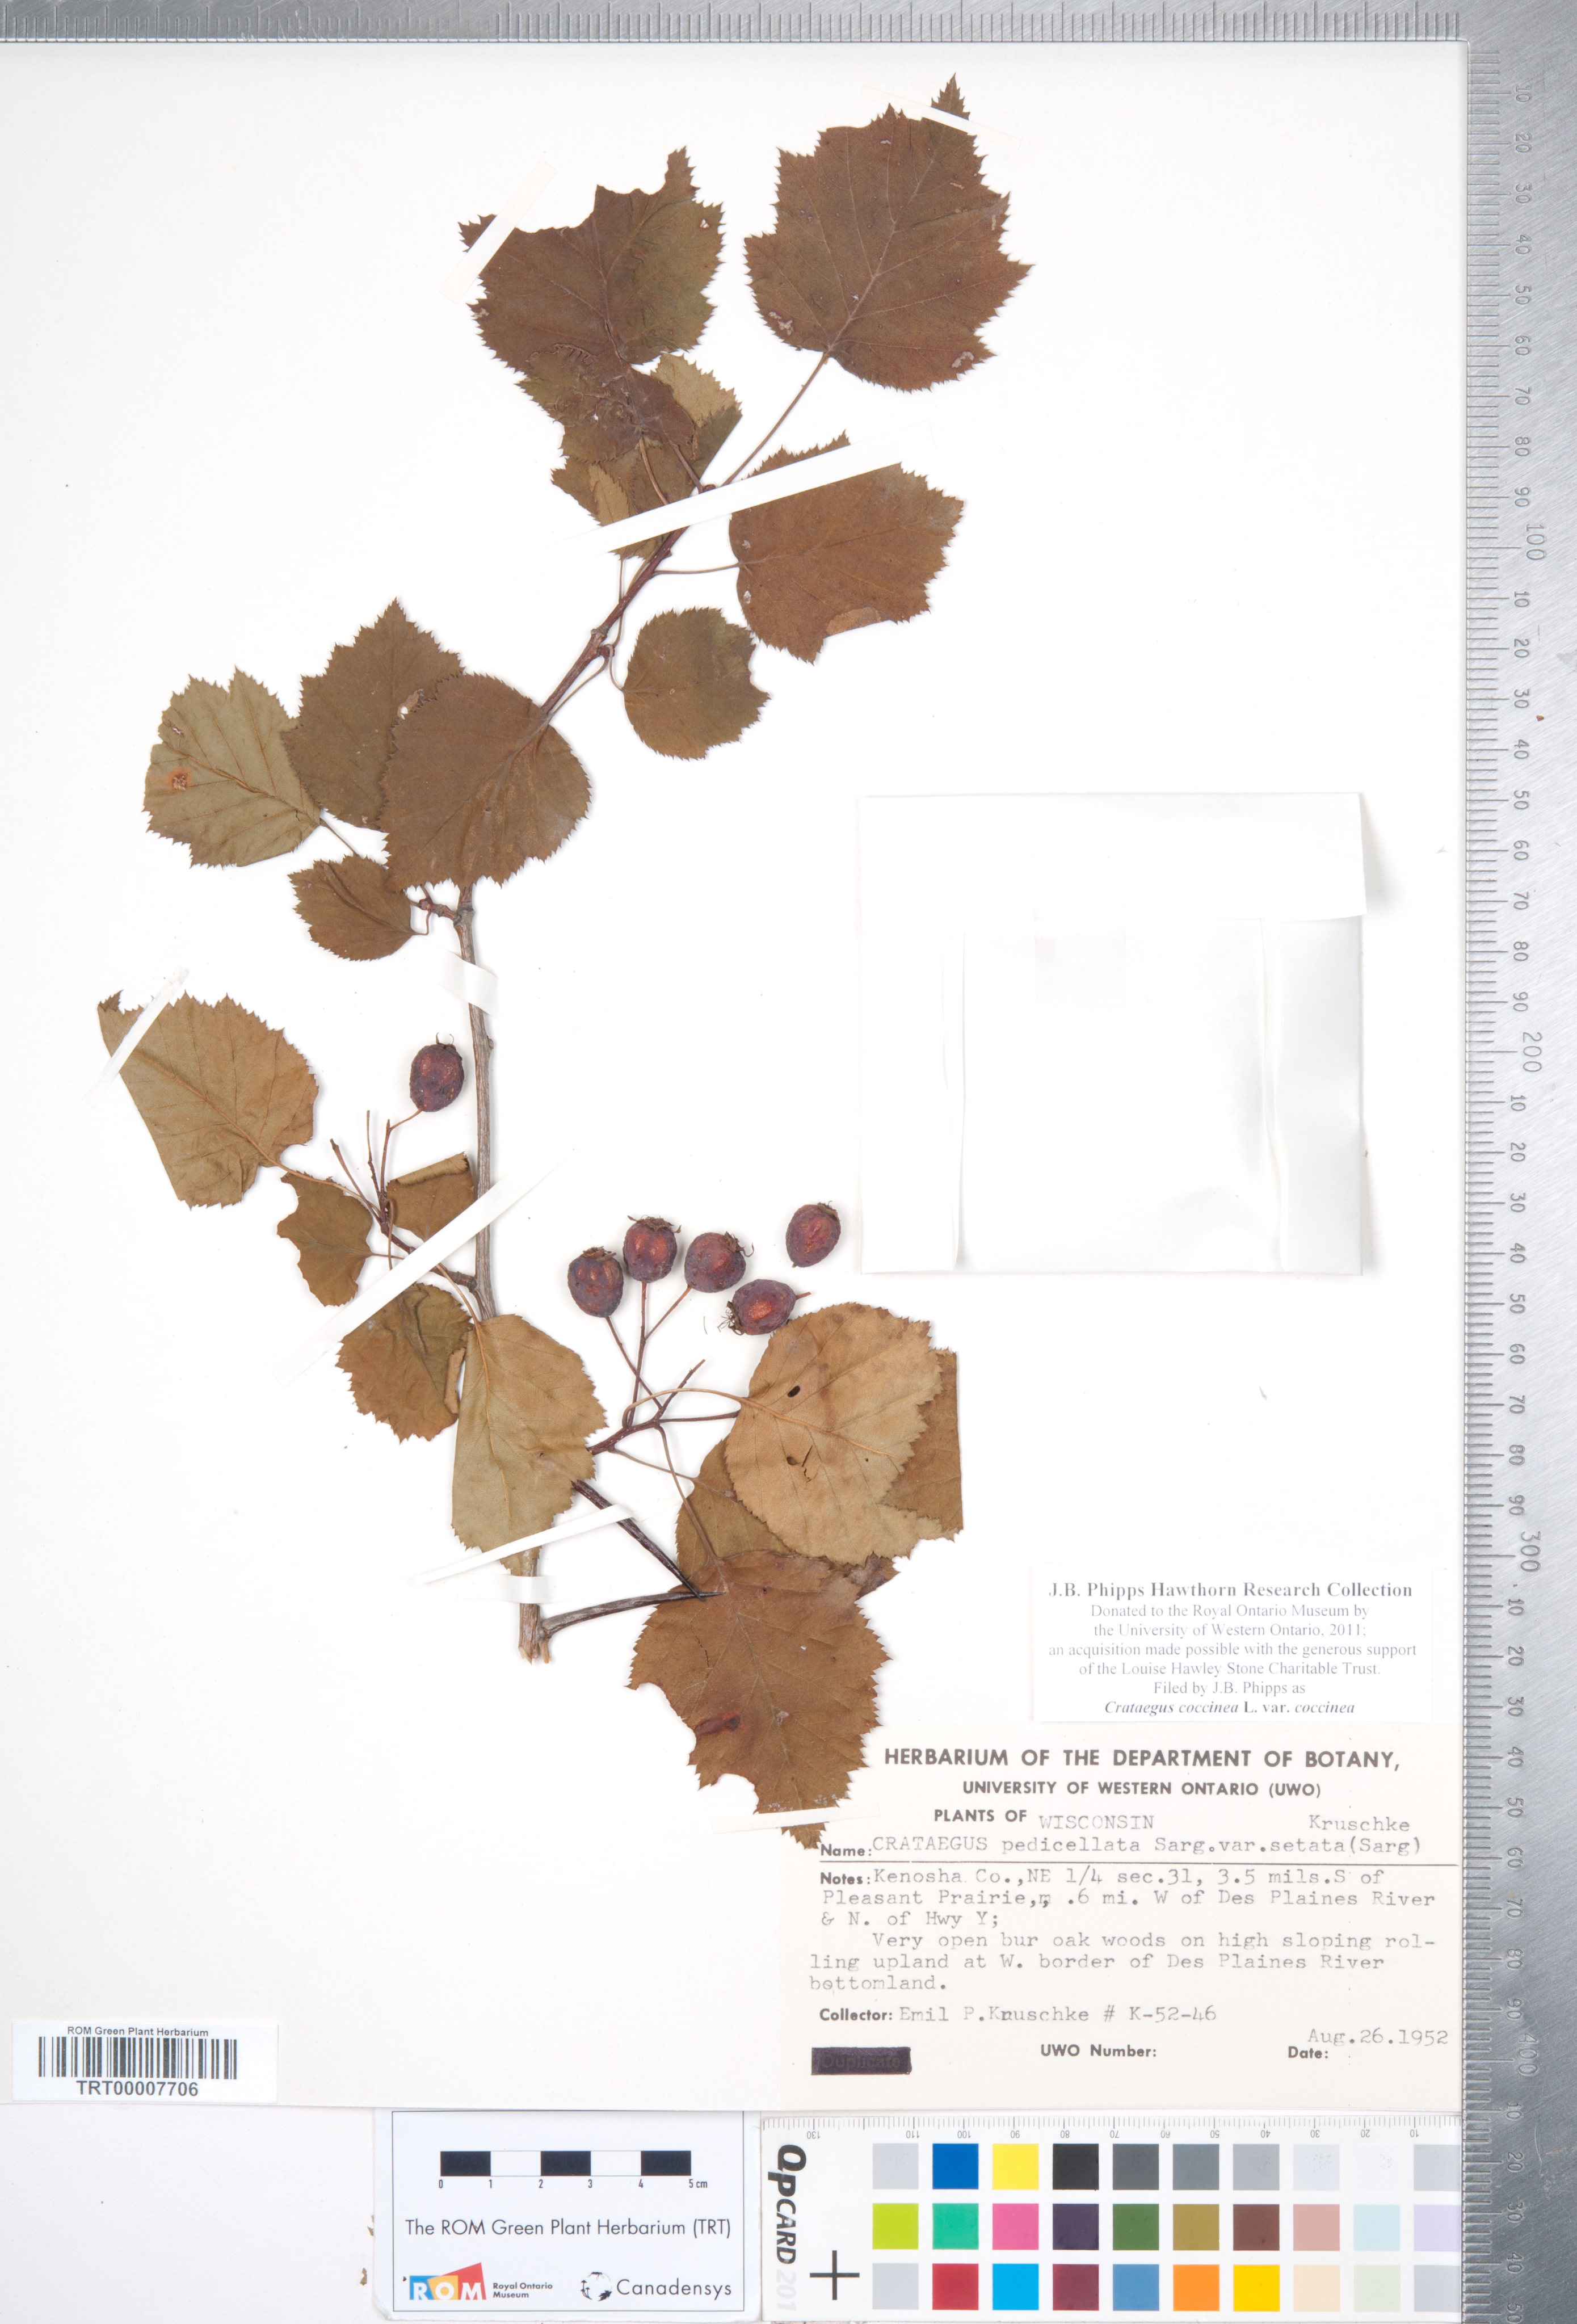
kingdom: Plantae
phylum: Tracheophyta
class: Magnoliopsida
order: Rosales
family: Rosaceae
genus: Crataegus
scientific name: Crataegus coccinea
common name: Scarlet hawthorn
